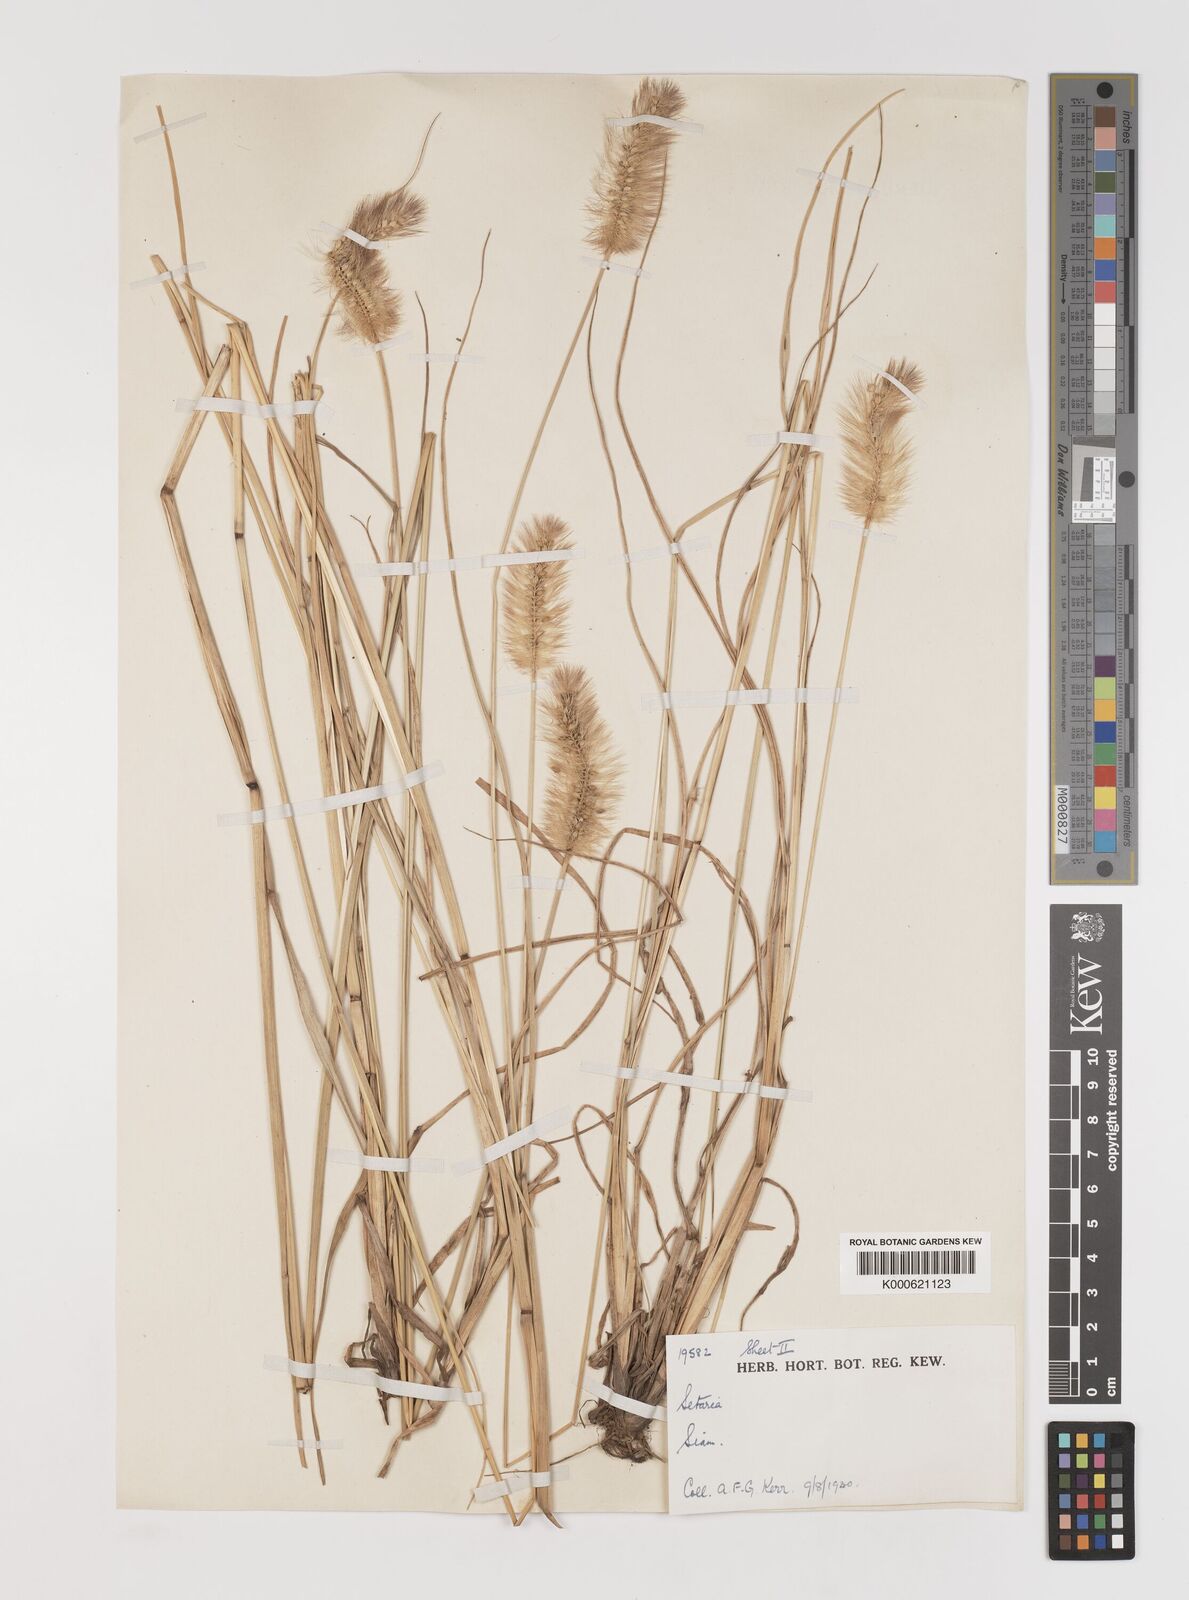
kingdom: Plantae
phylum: Tracheophyta
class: Liliopsida
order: Poales
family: Poaceae
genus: Setaria
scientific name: Setaria italica
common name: Foxtail bristle-grass
